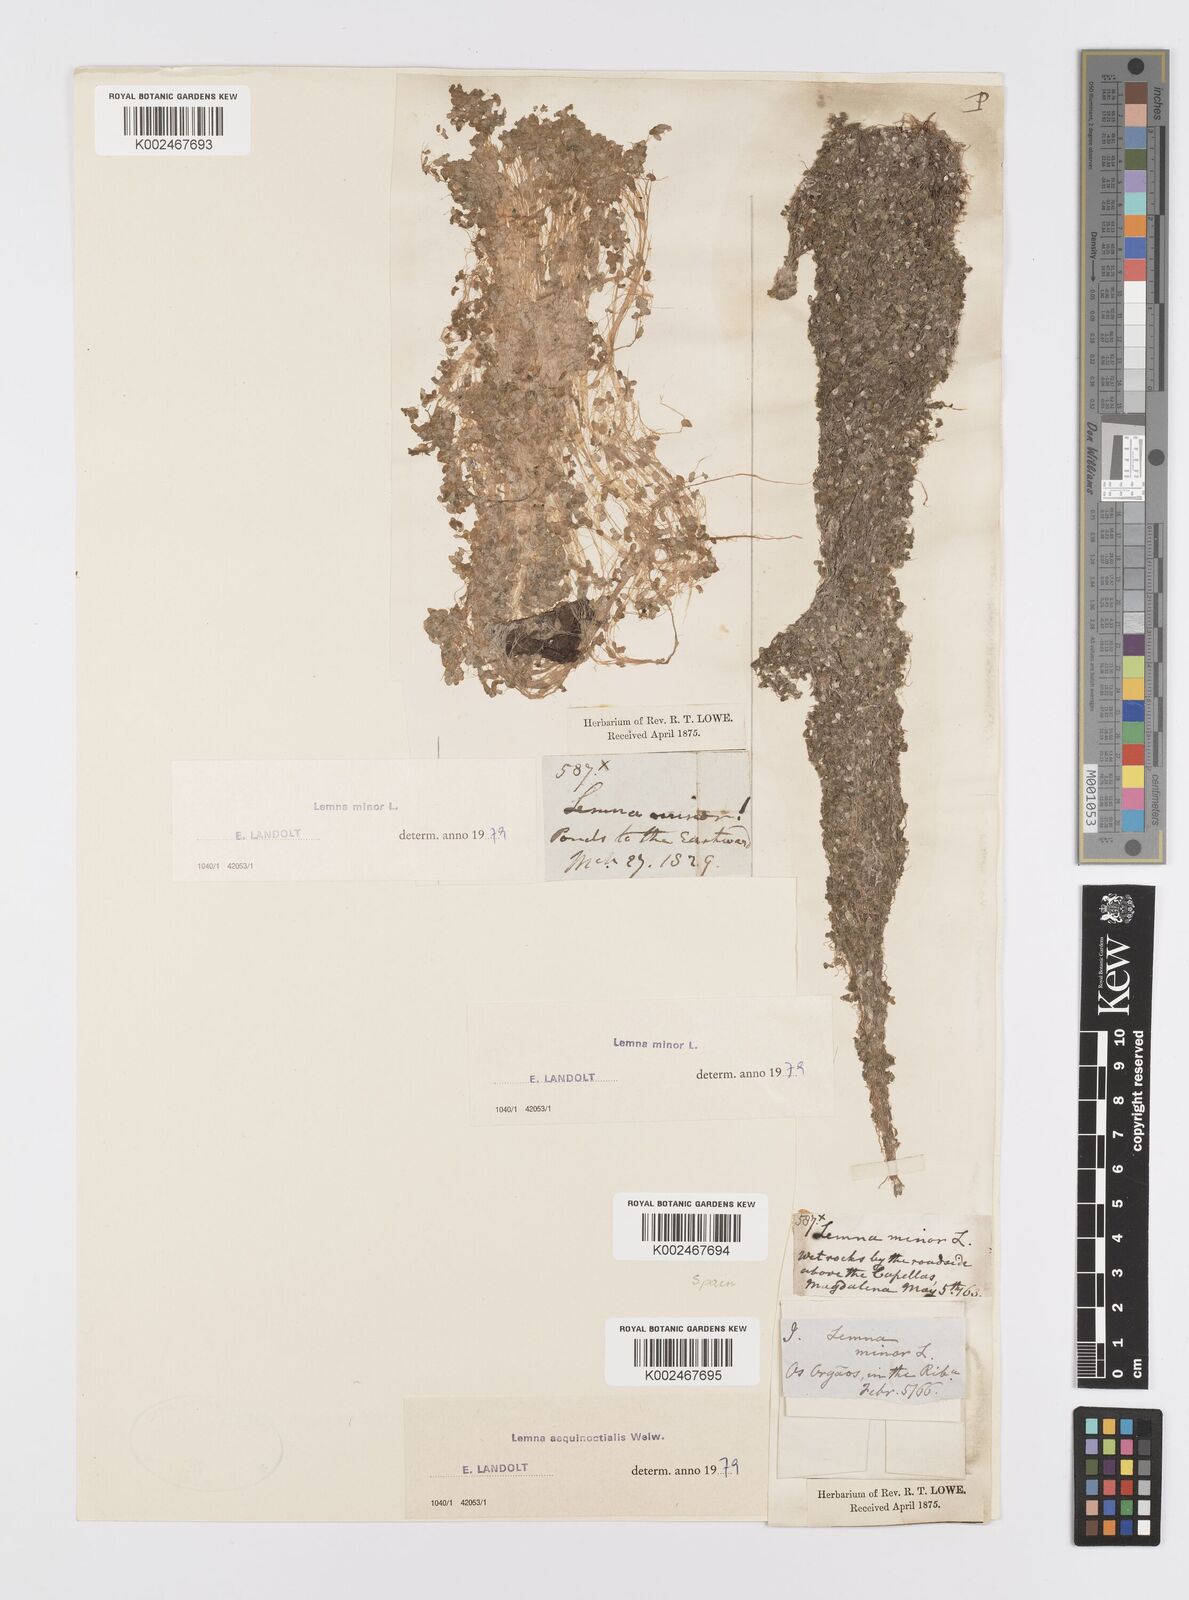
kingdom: Plantae
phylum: Tracheophyta
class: Liliopsida
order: Alismatales
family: Araceae
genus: Lemna
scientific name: Lemna aequinoctialis
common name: Duckweed
